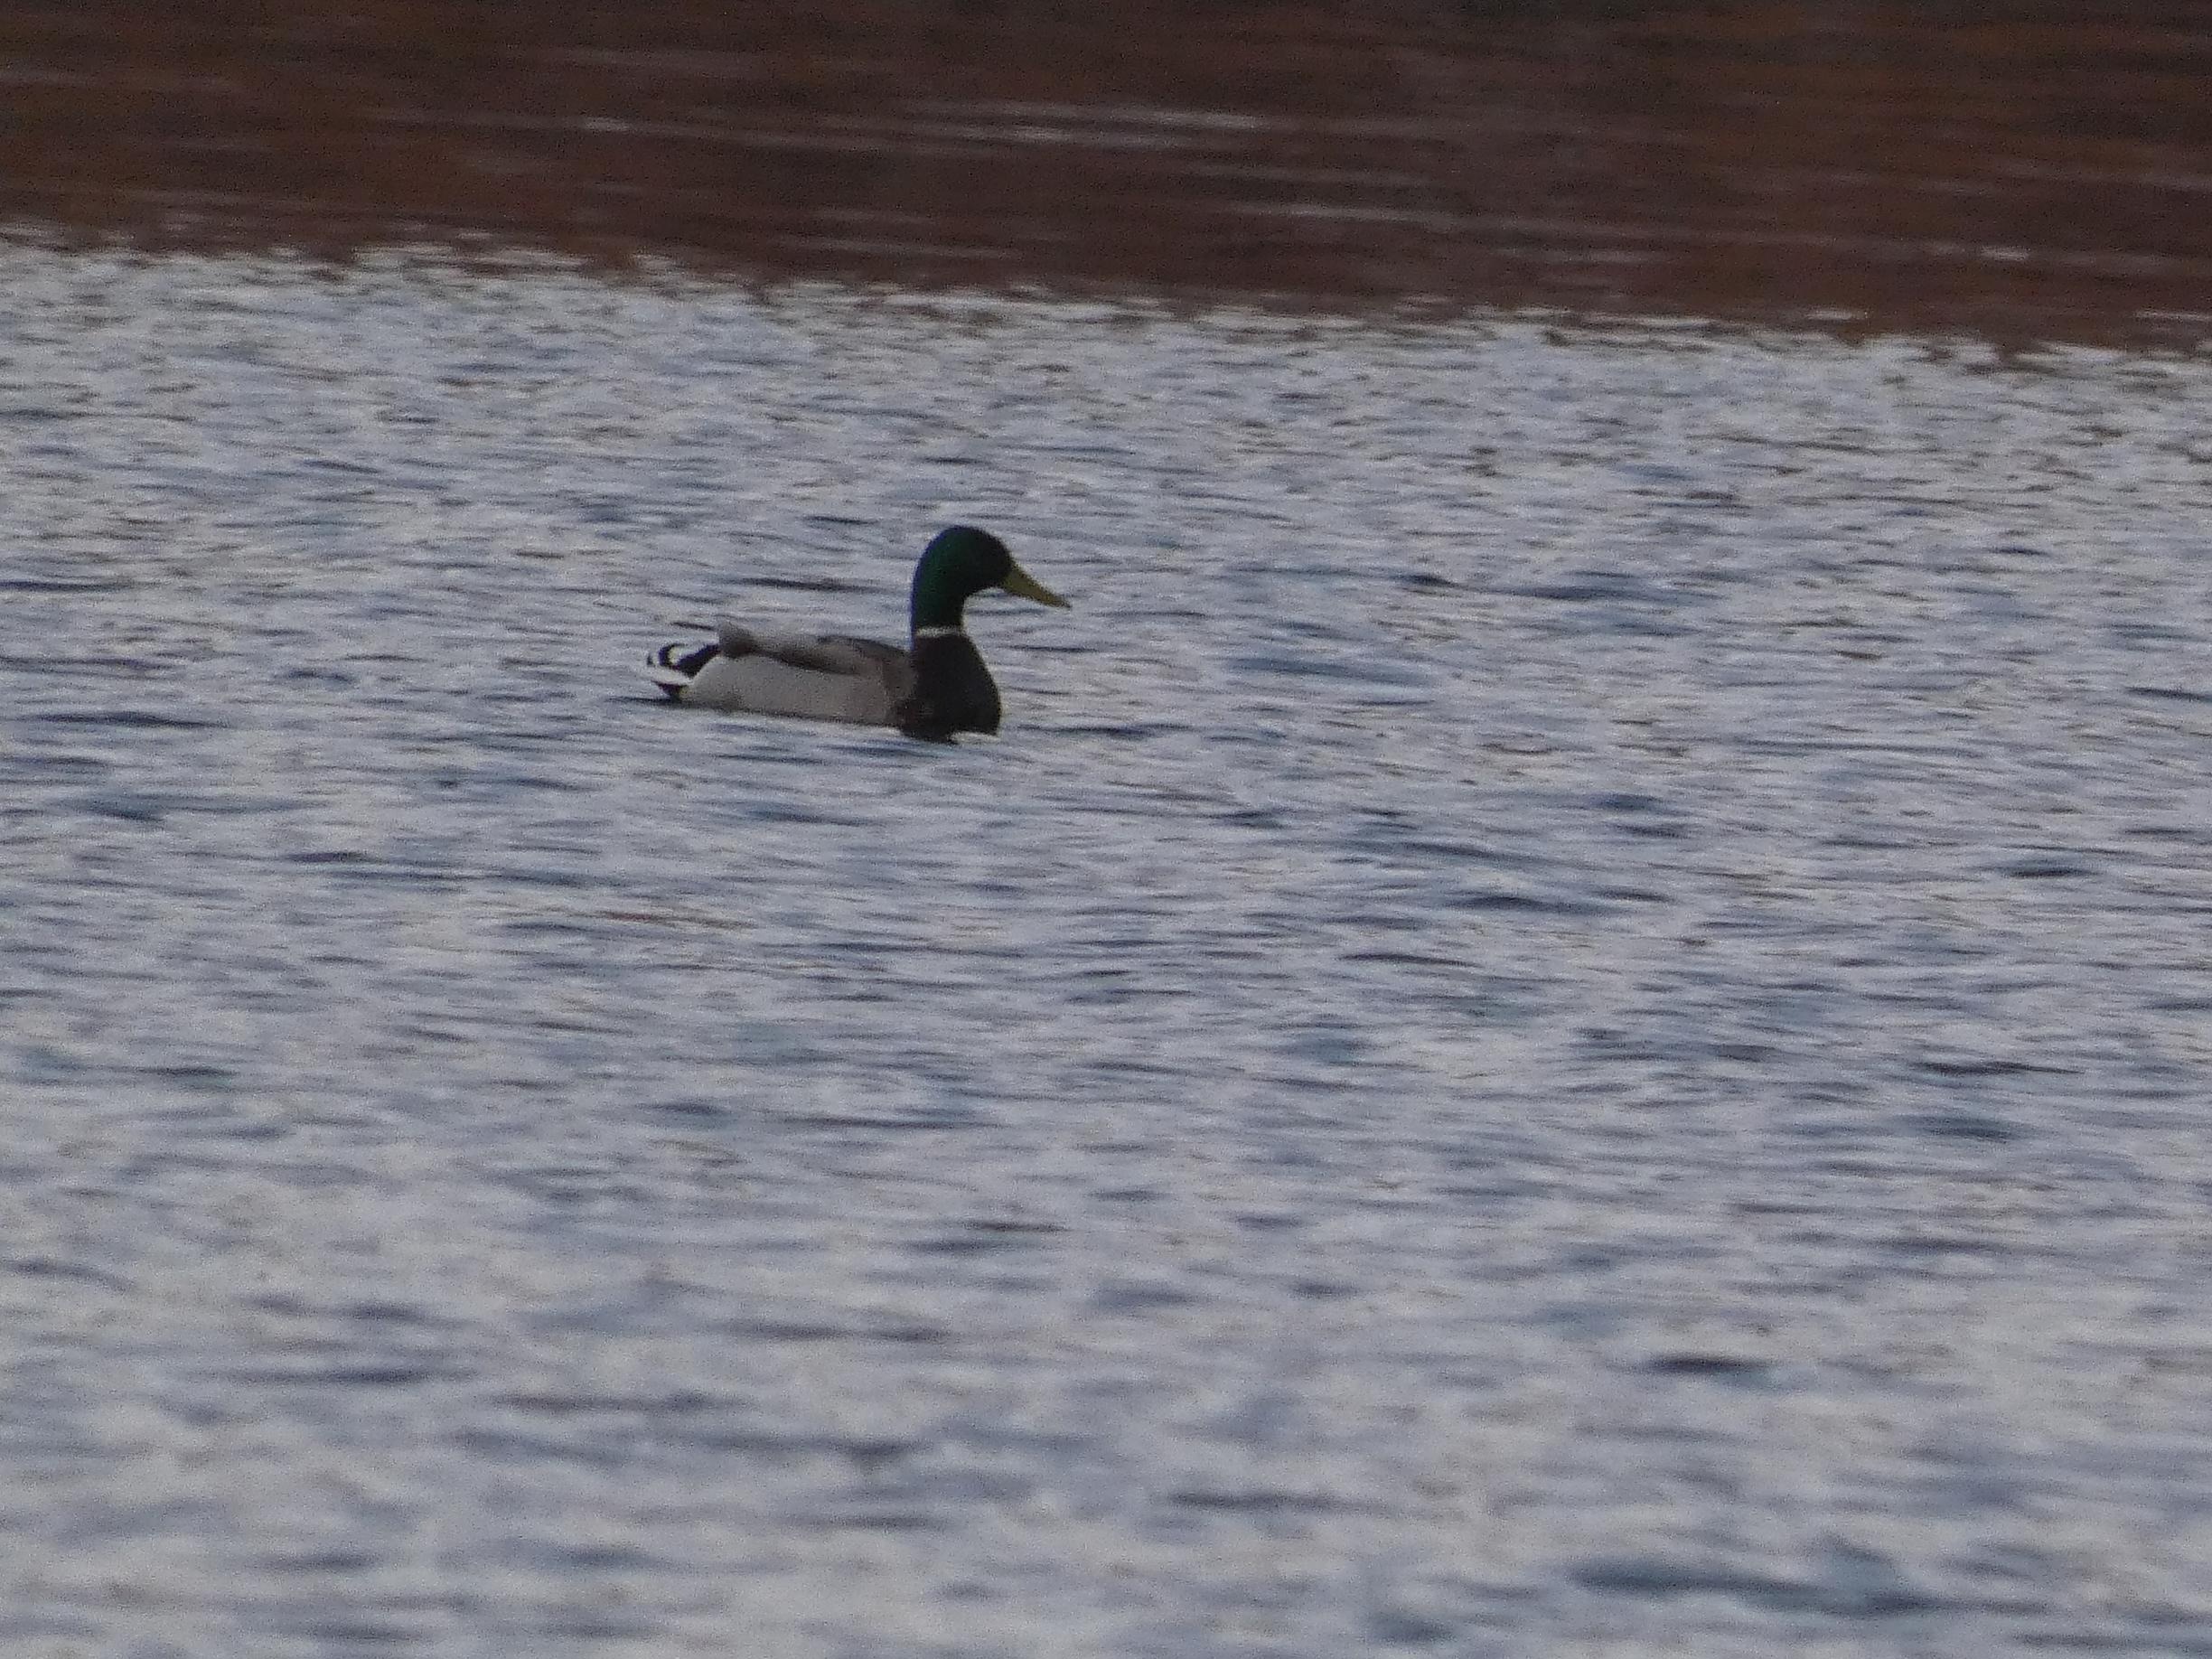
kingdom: Animalia
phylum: Chordata
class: Aves
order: Anseriformes
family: Anatidae
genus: Anas
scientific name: Anas platyrhynchos
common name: Gråand
